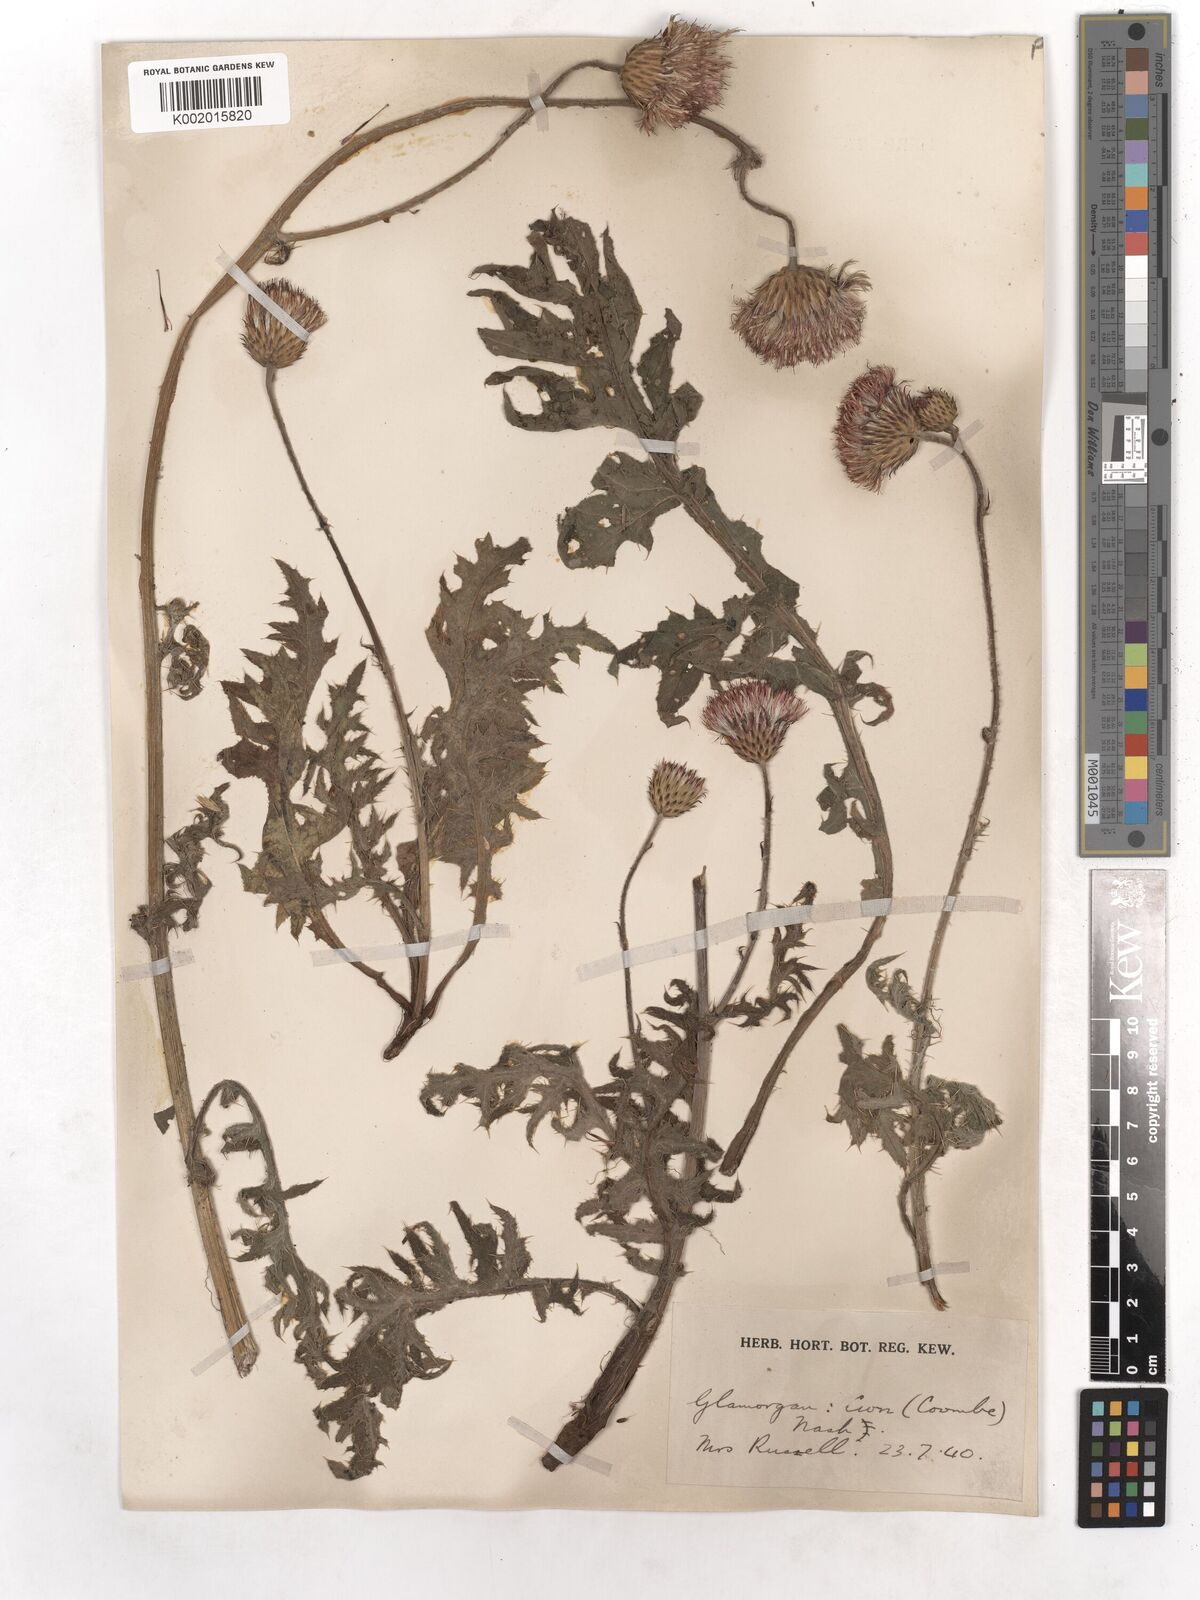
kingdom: Plantae
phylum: Tracheophyta
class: Magnoliopsida
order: Asterales
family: Asteraceae
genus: Cirsium
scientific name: Cirsium tuberosum
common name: Tuberous thistle
